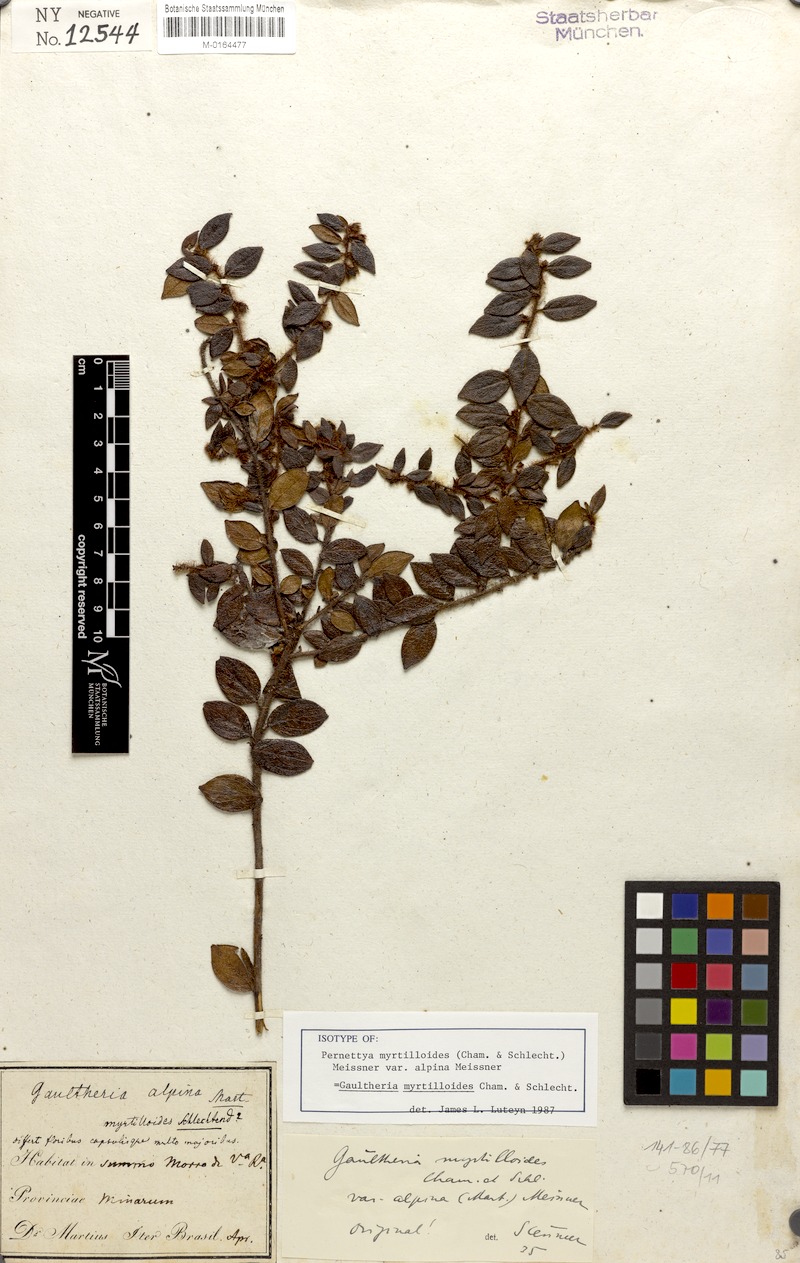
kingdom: Plantae
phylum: Tracheophyta
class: Magnoliopsida
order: Ericales
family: Ericaceae
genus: Gaultheria
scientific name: Gaultheria myrtilloides
